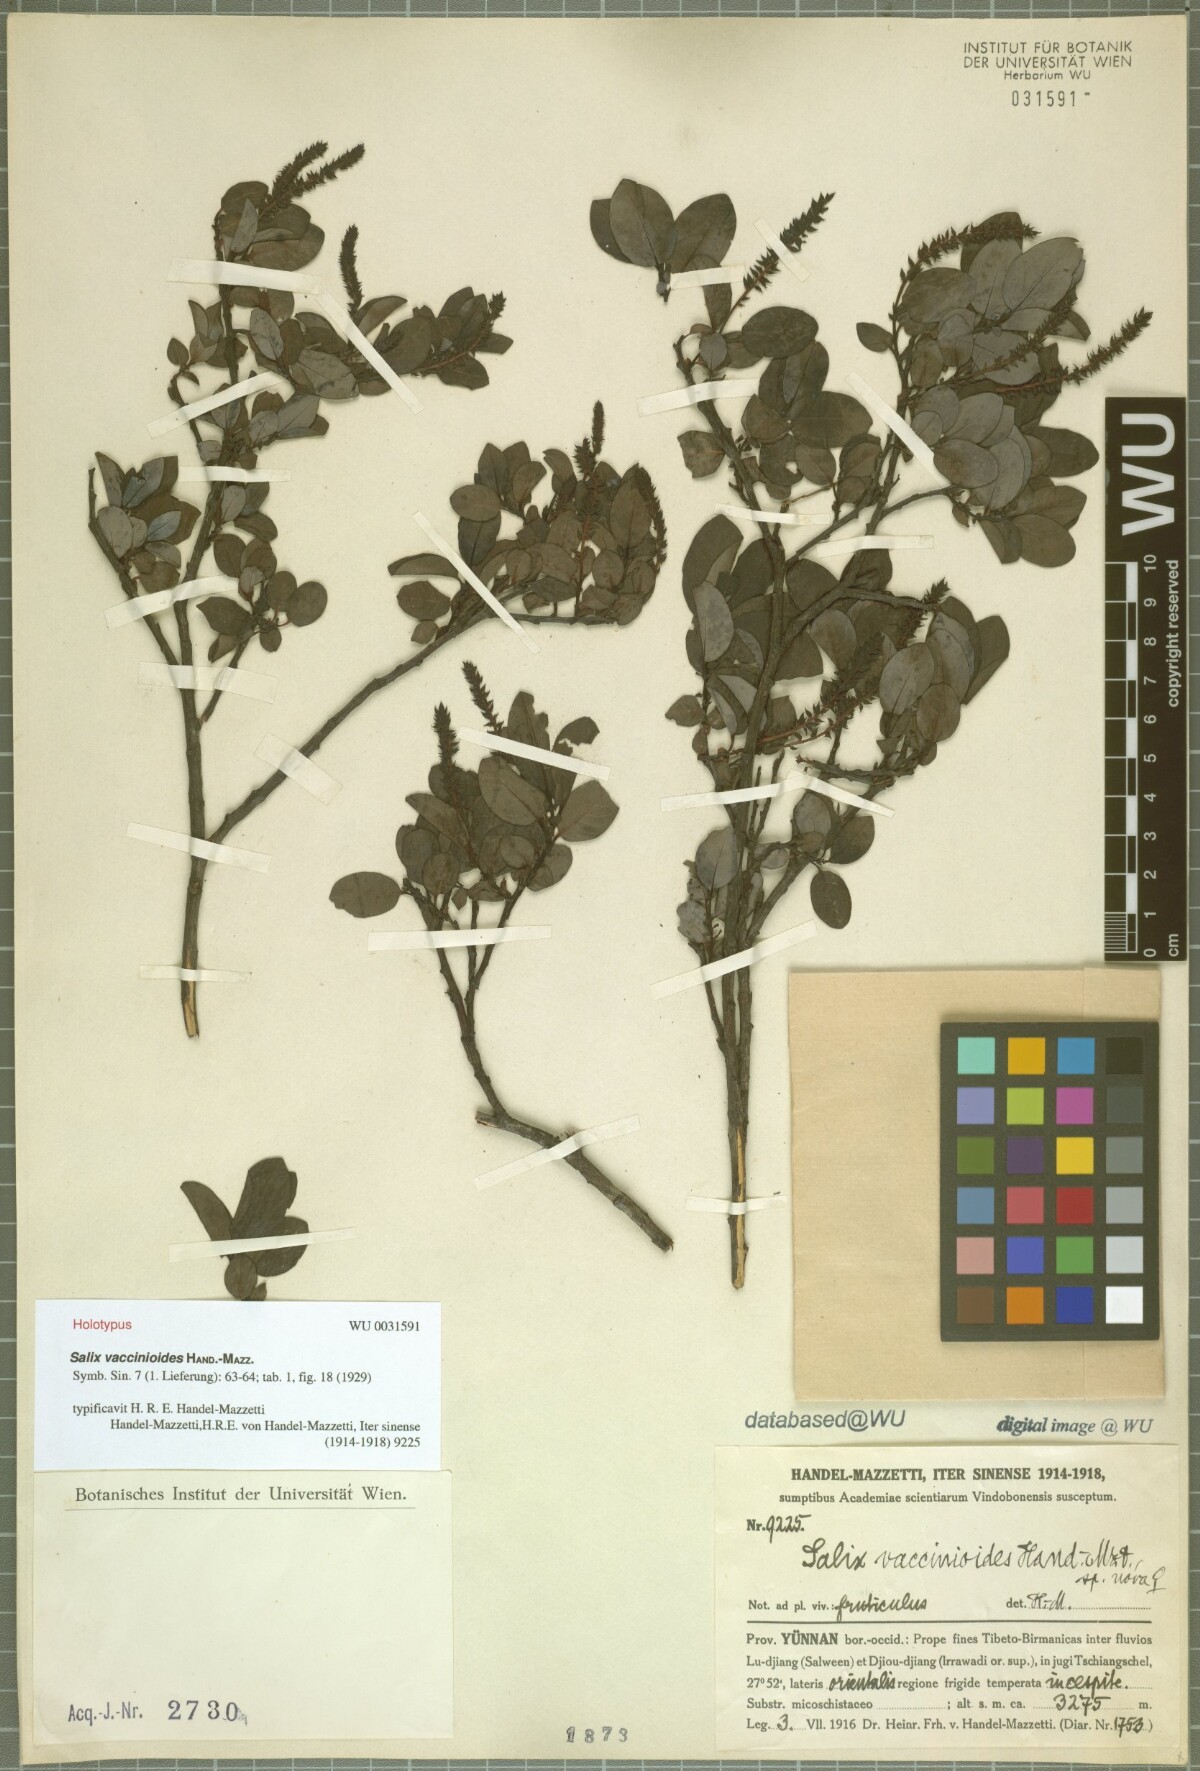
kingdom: Plantae
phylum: Tracheophyta
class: Magnoliopsida
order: Malpighiales
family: Salicaceae
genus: Salix
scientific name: Salix mazzettiana
